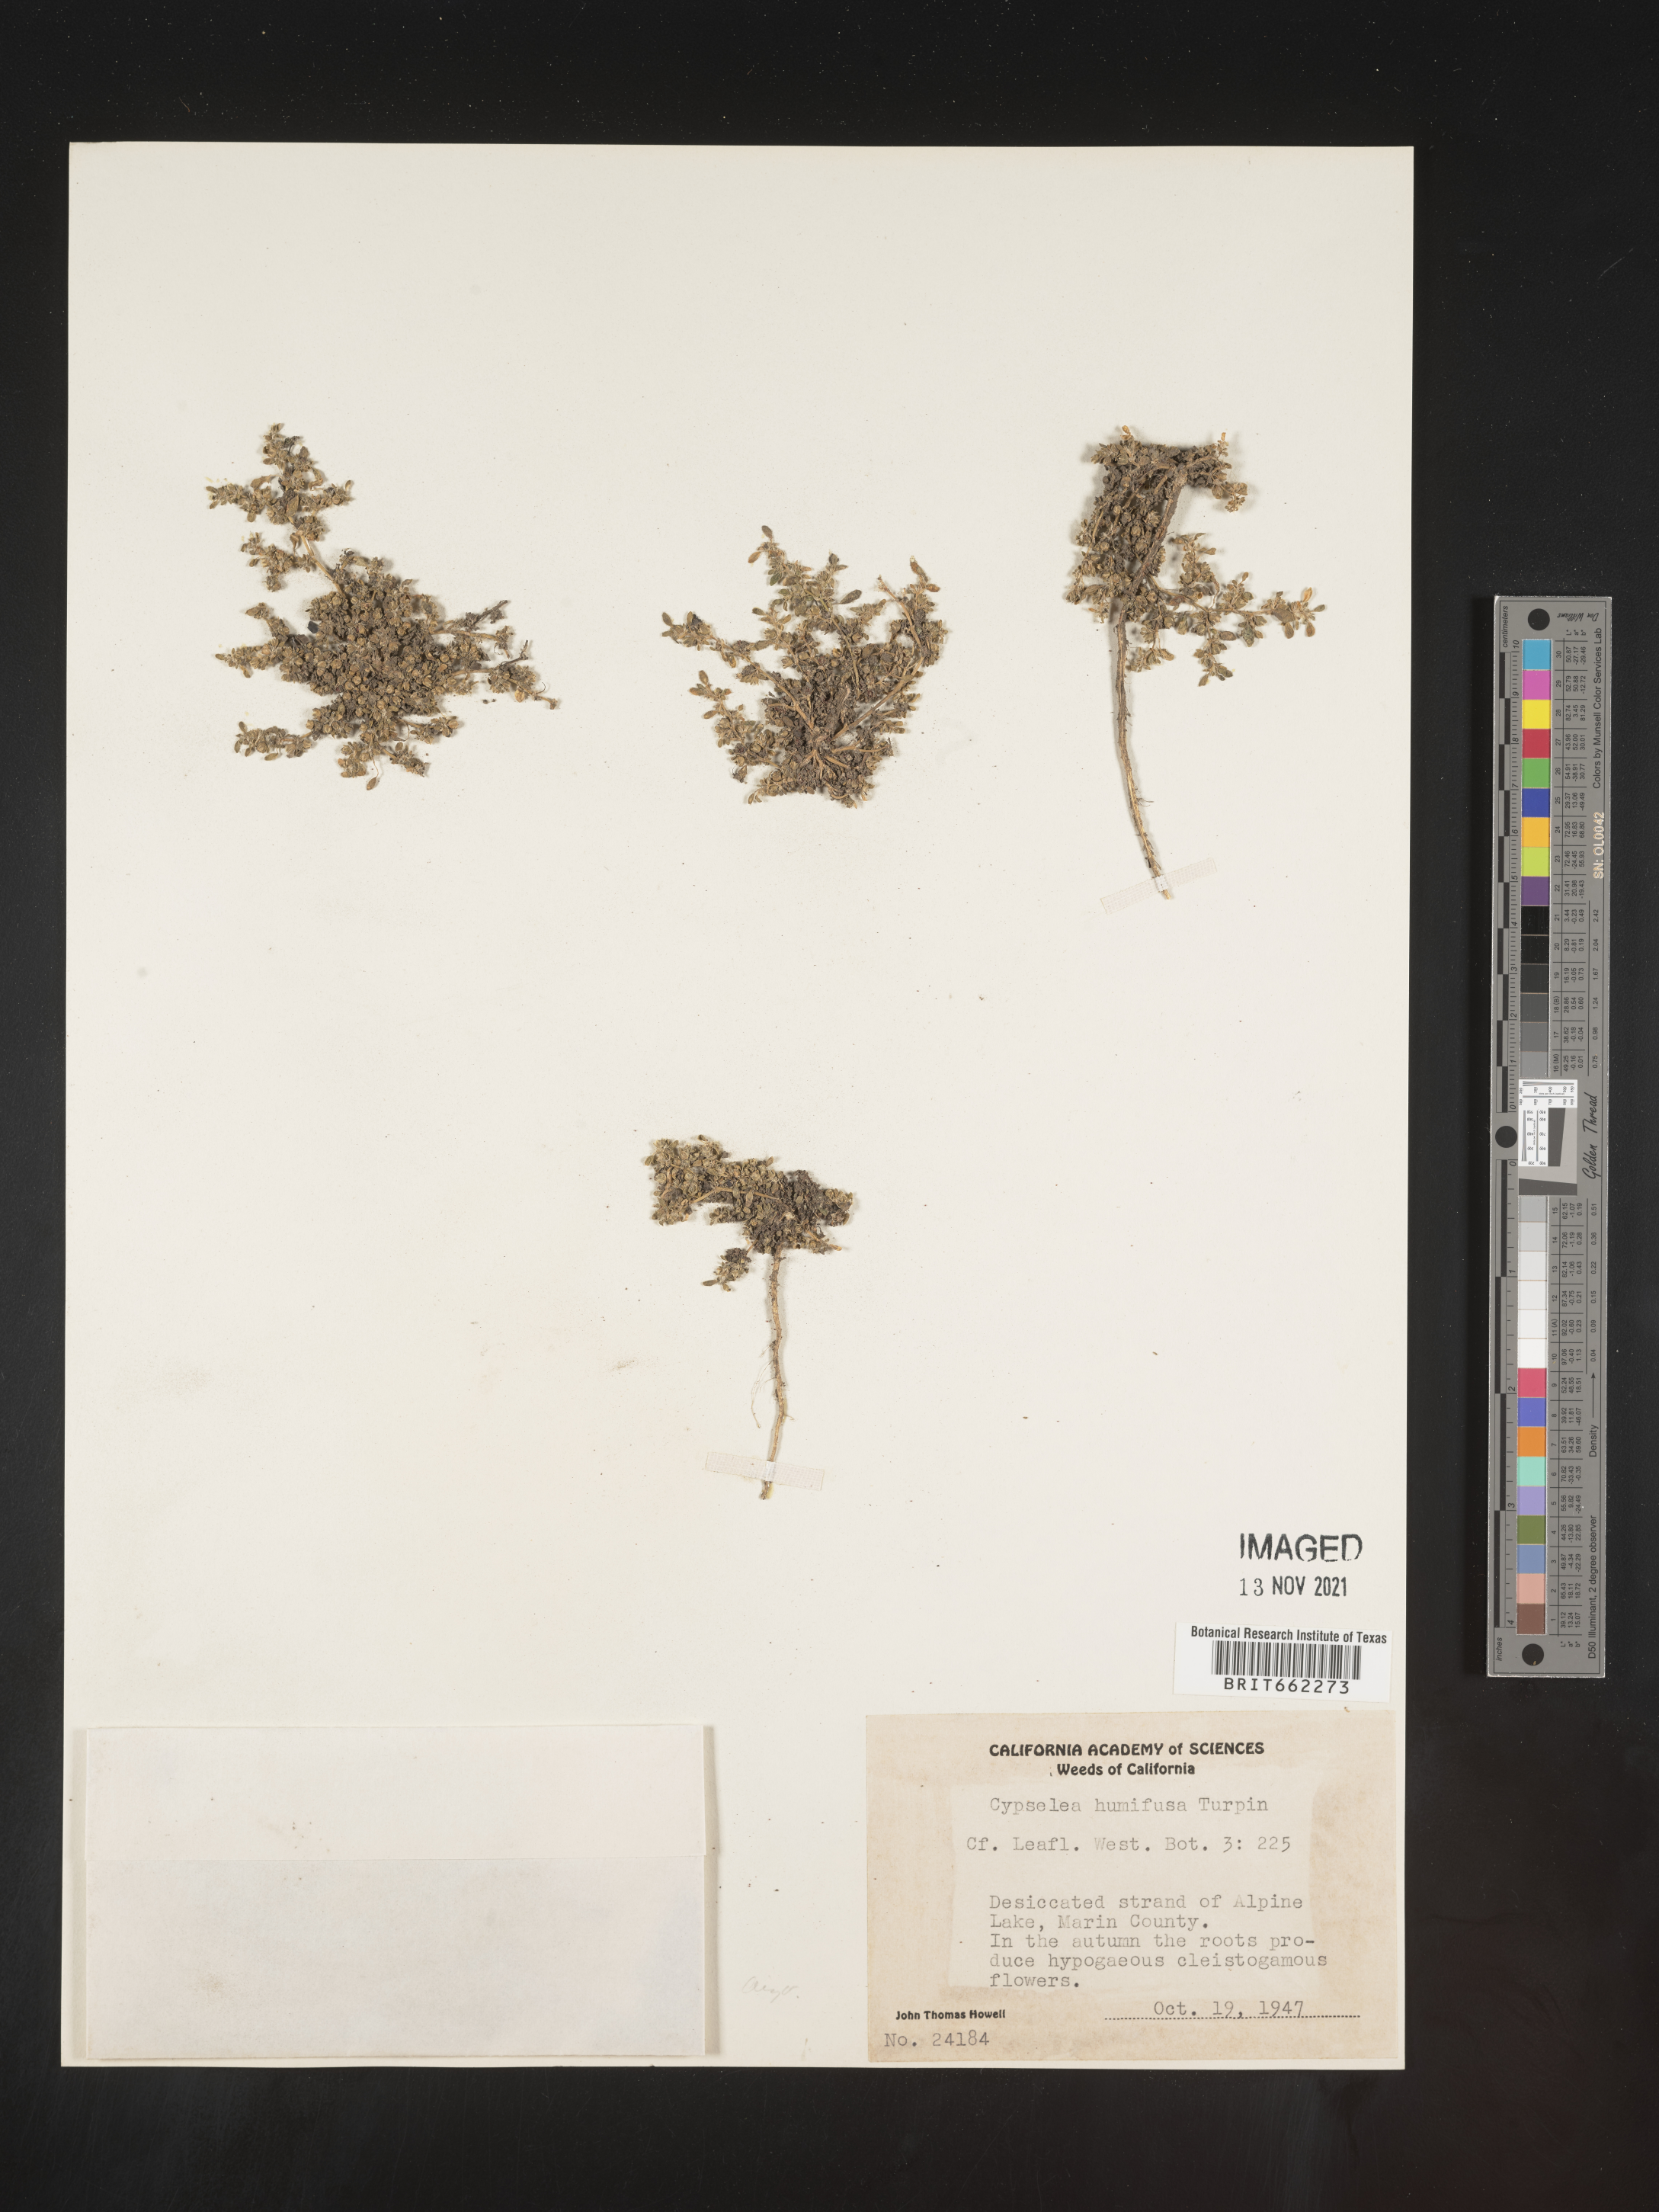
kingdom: Plantae
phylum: Tracheophyta
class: Magnoliopsida
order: Caryophyllales
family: Aizoaceae
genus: Sesuvium
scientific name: Sesuvium
